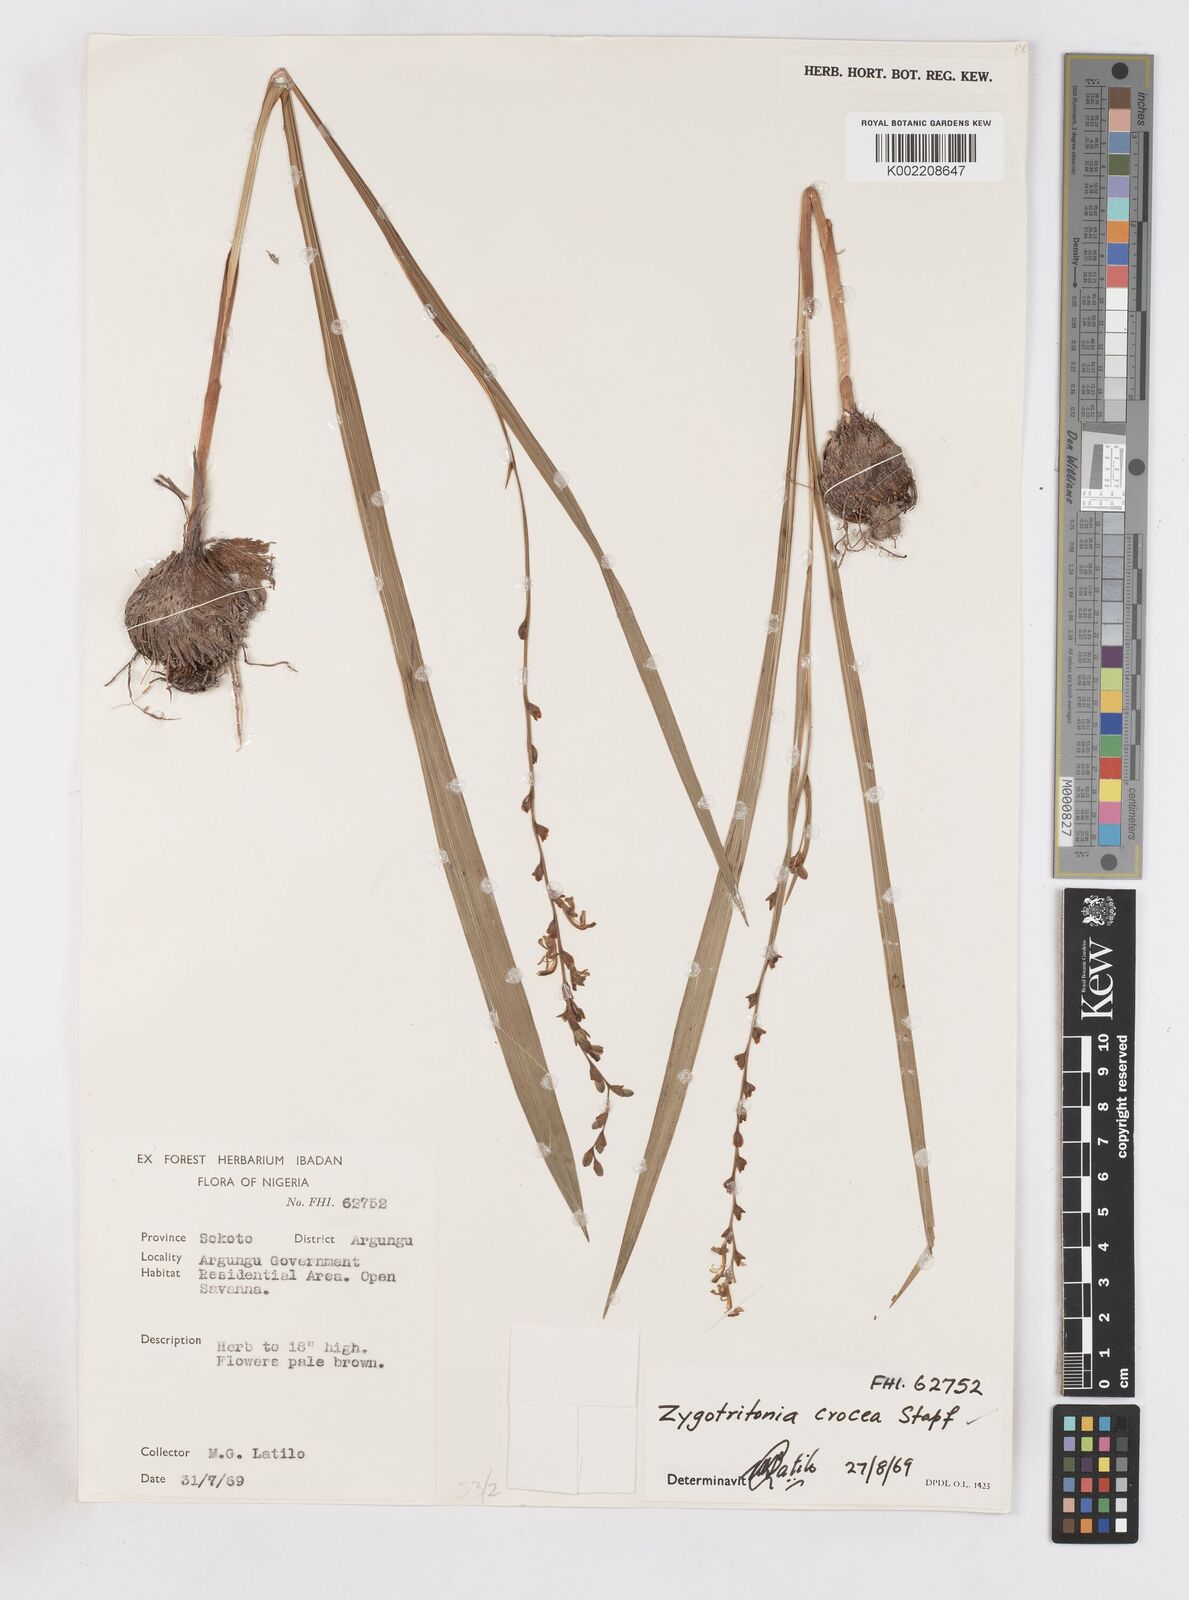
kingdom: Plantae
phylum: Tracheophyta
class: Liliopsida
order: Asparagales
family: Iridaceae
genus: Savannosiphon
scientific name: Savannosiphon
